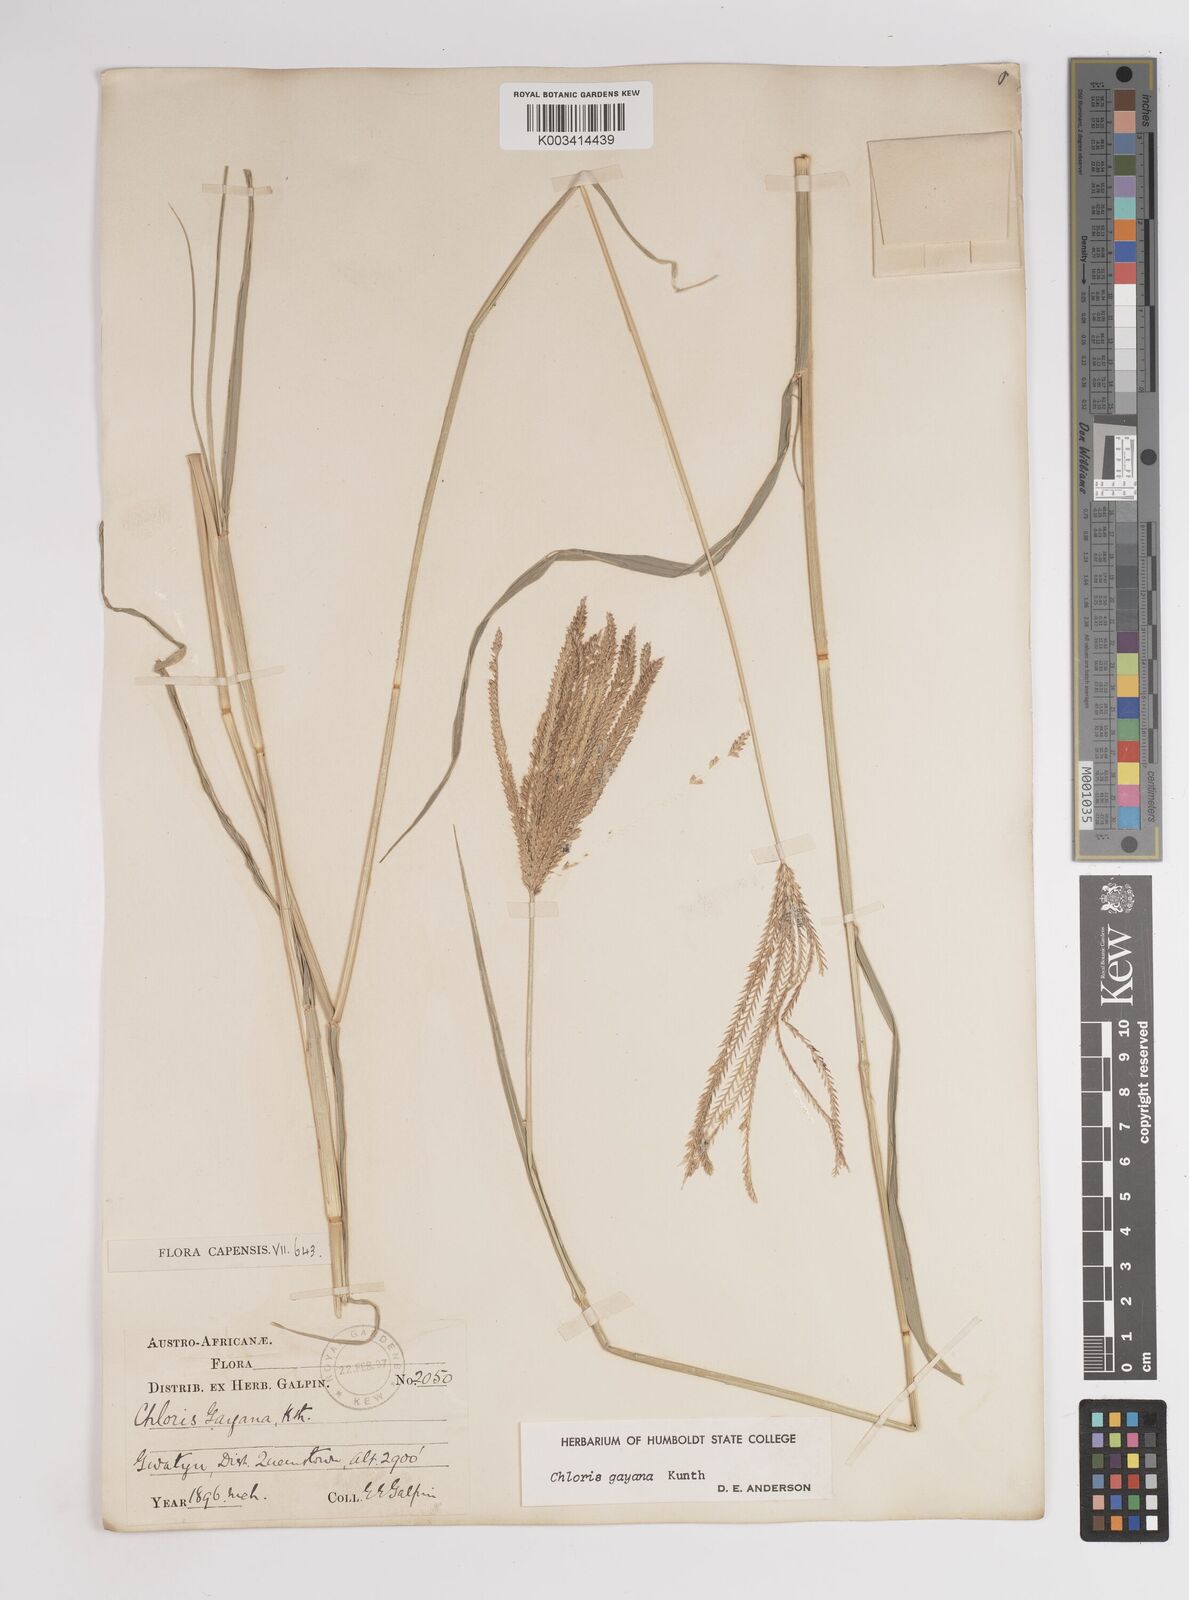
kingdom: Plantae
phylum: Tracheophyta
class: Liliopsida
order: Poales
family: Poaceae
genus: Chloris
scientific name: Chloris gayana
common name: Rhodes grass
